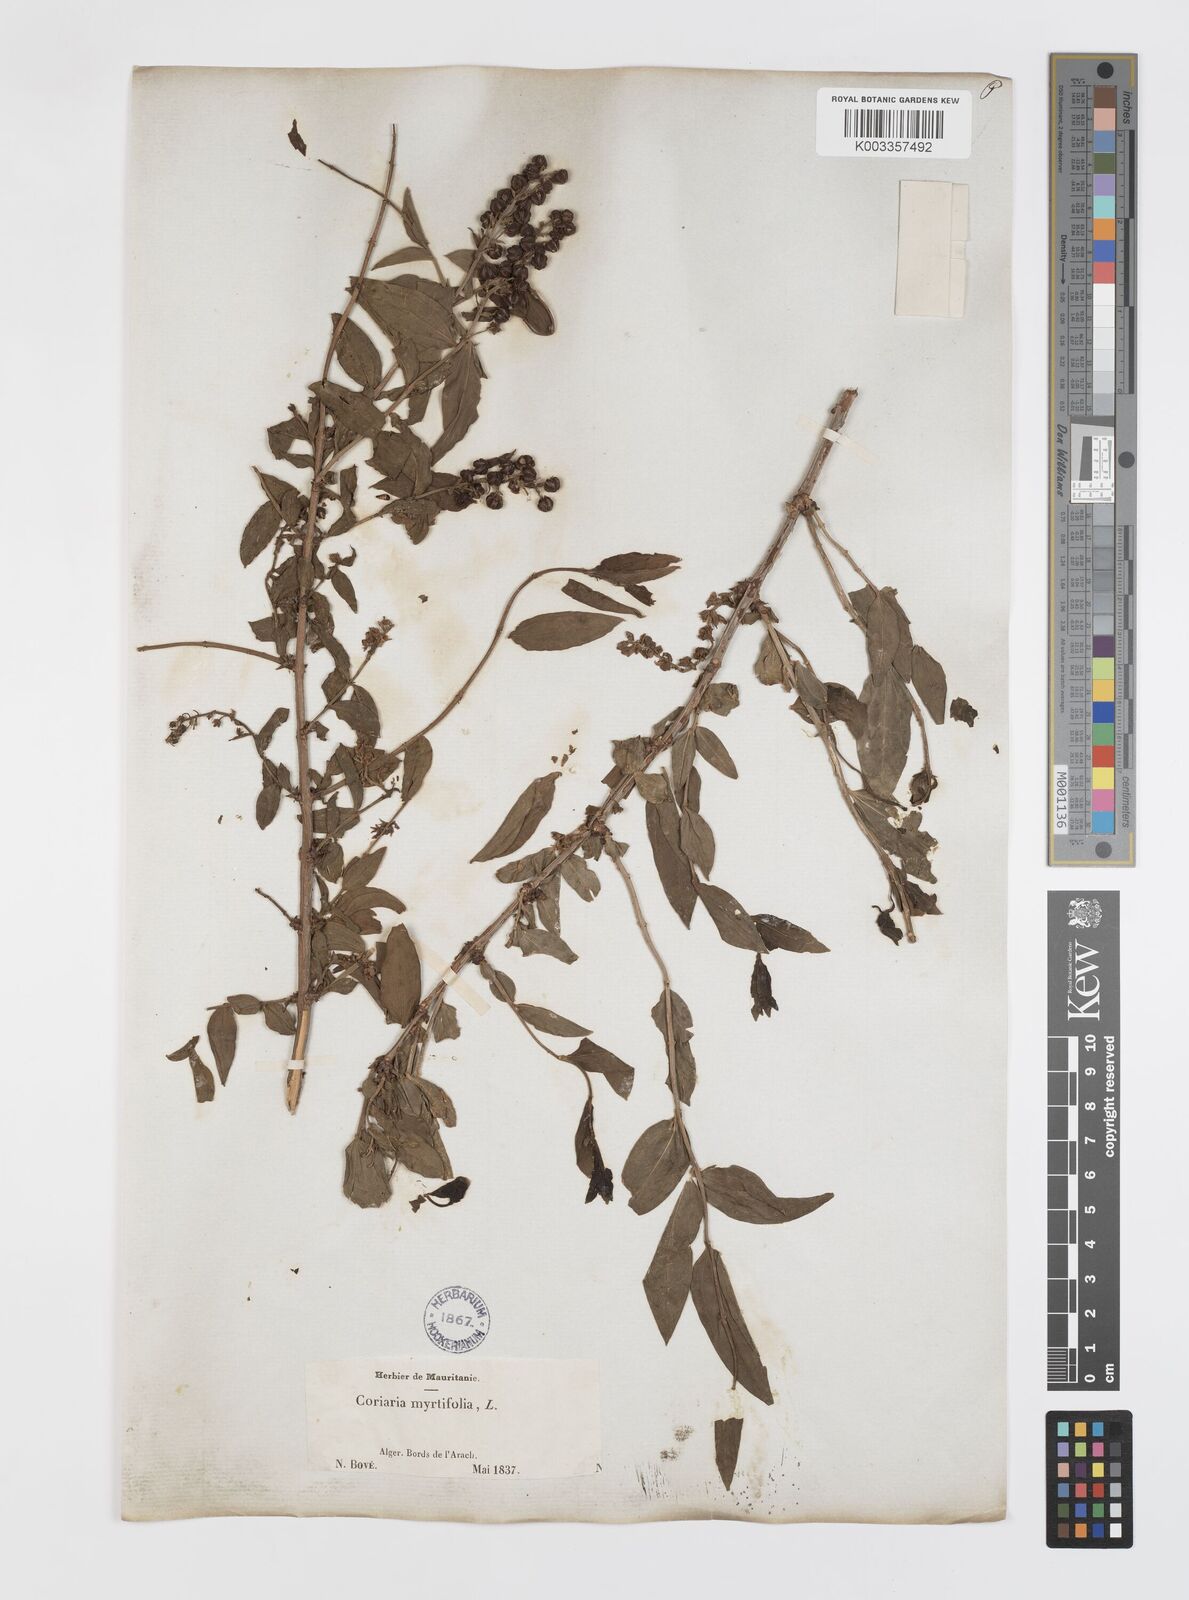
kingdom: Plantae
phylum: Tracheophyta
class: Magnoliopsida
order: Cucurbitales
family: Coriariaceae
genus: Coriaria
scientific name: Coriaria myrtifolia
